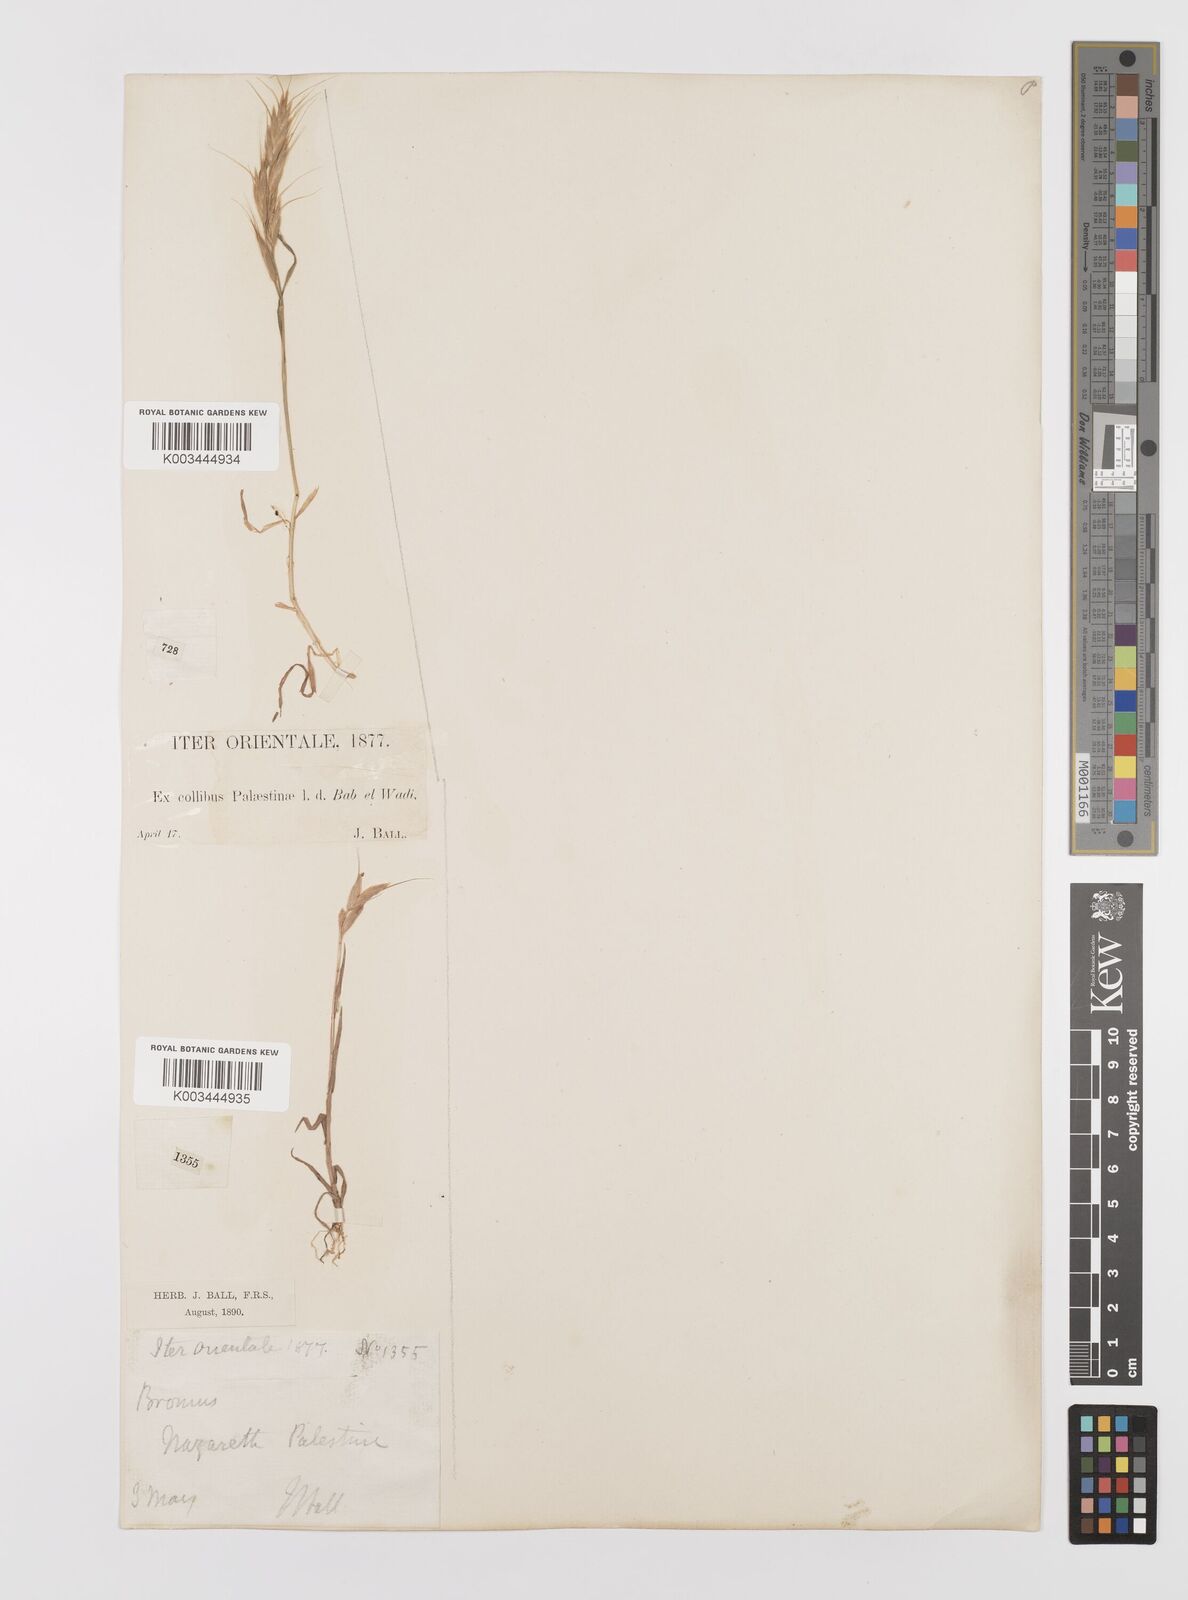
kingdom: Plantae
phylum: Tracheophyta
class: Liliopsida
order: Poales
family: Poaceae
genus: Bromus
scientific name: Bromus lanceolatus
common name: Mediterranean brome
